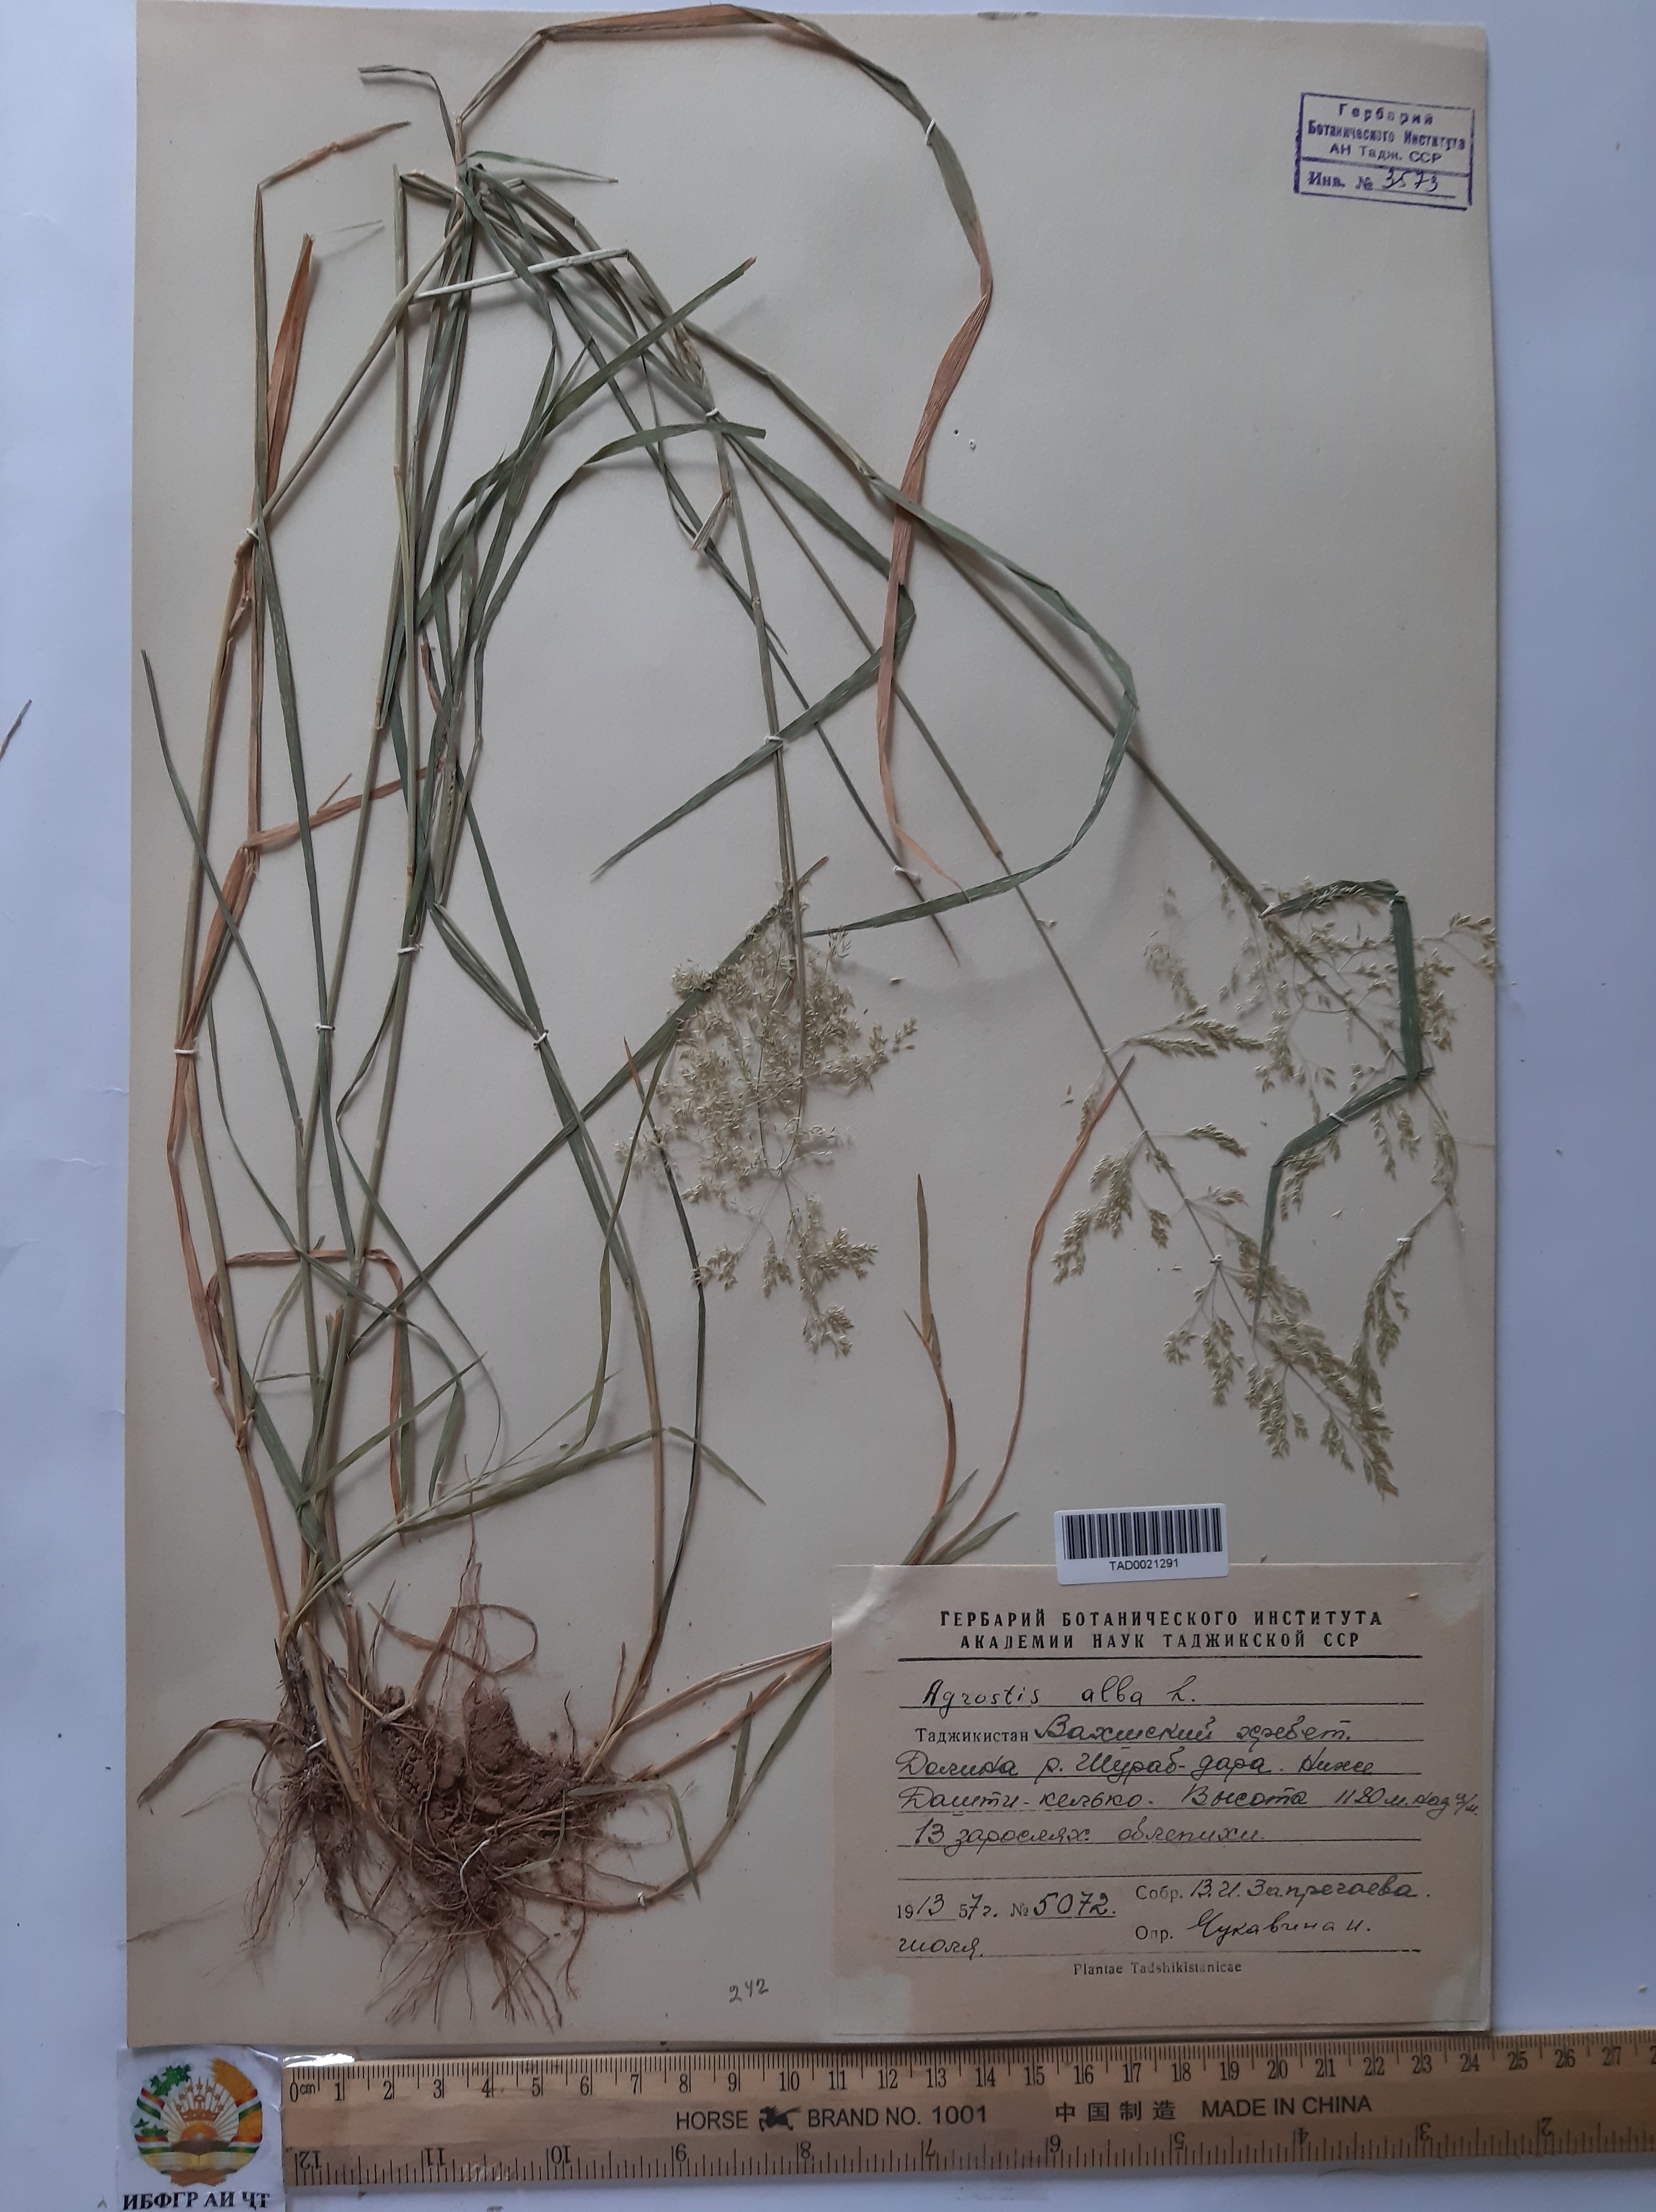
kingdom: Plantae
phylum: Tracheophyta
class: Liliopsida
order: Poales
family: Poaceae
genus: Poa
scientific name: Poa nemoralis
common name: Wood bluegrass
